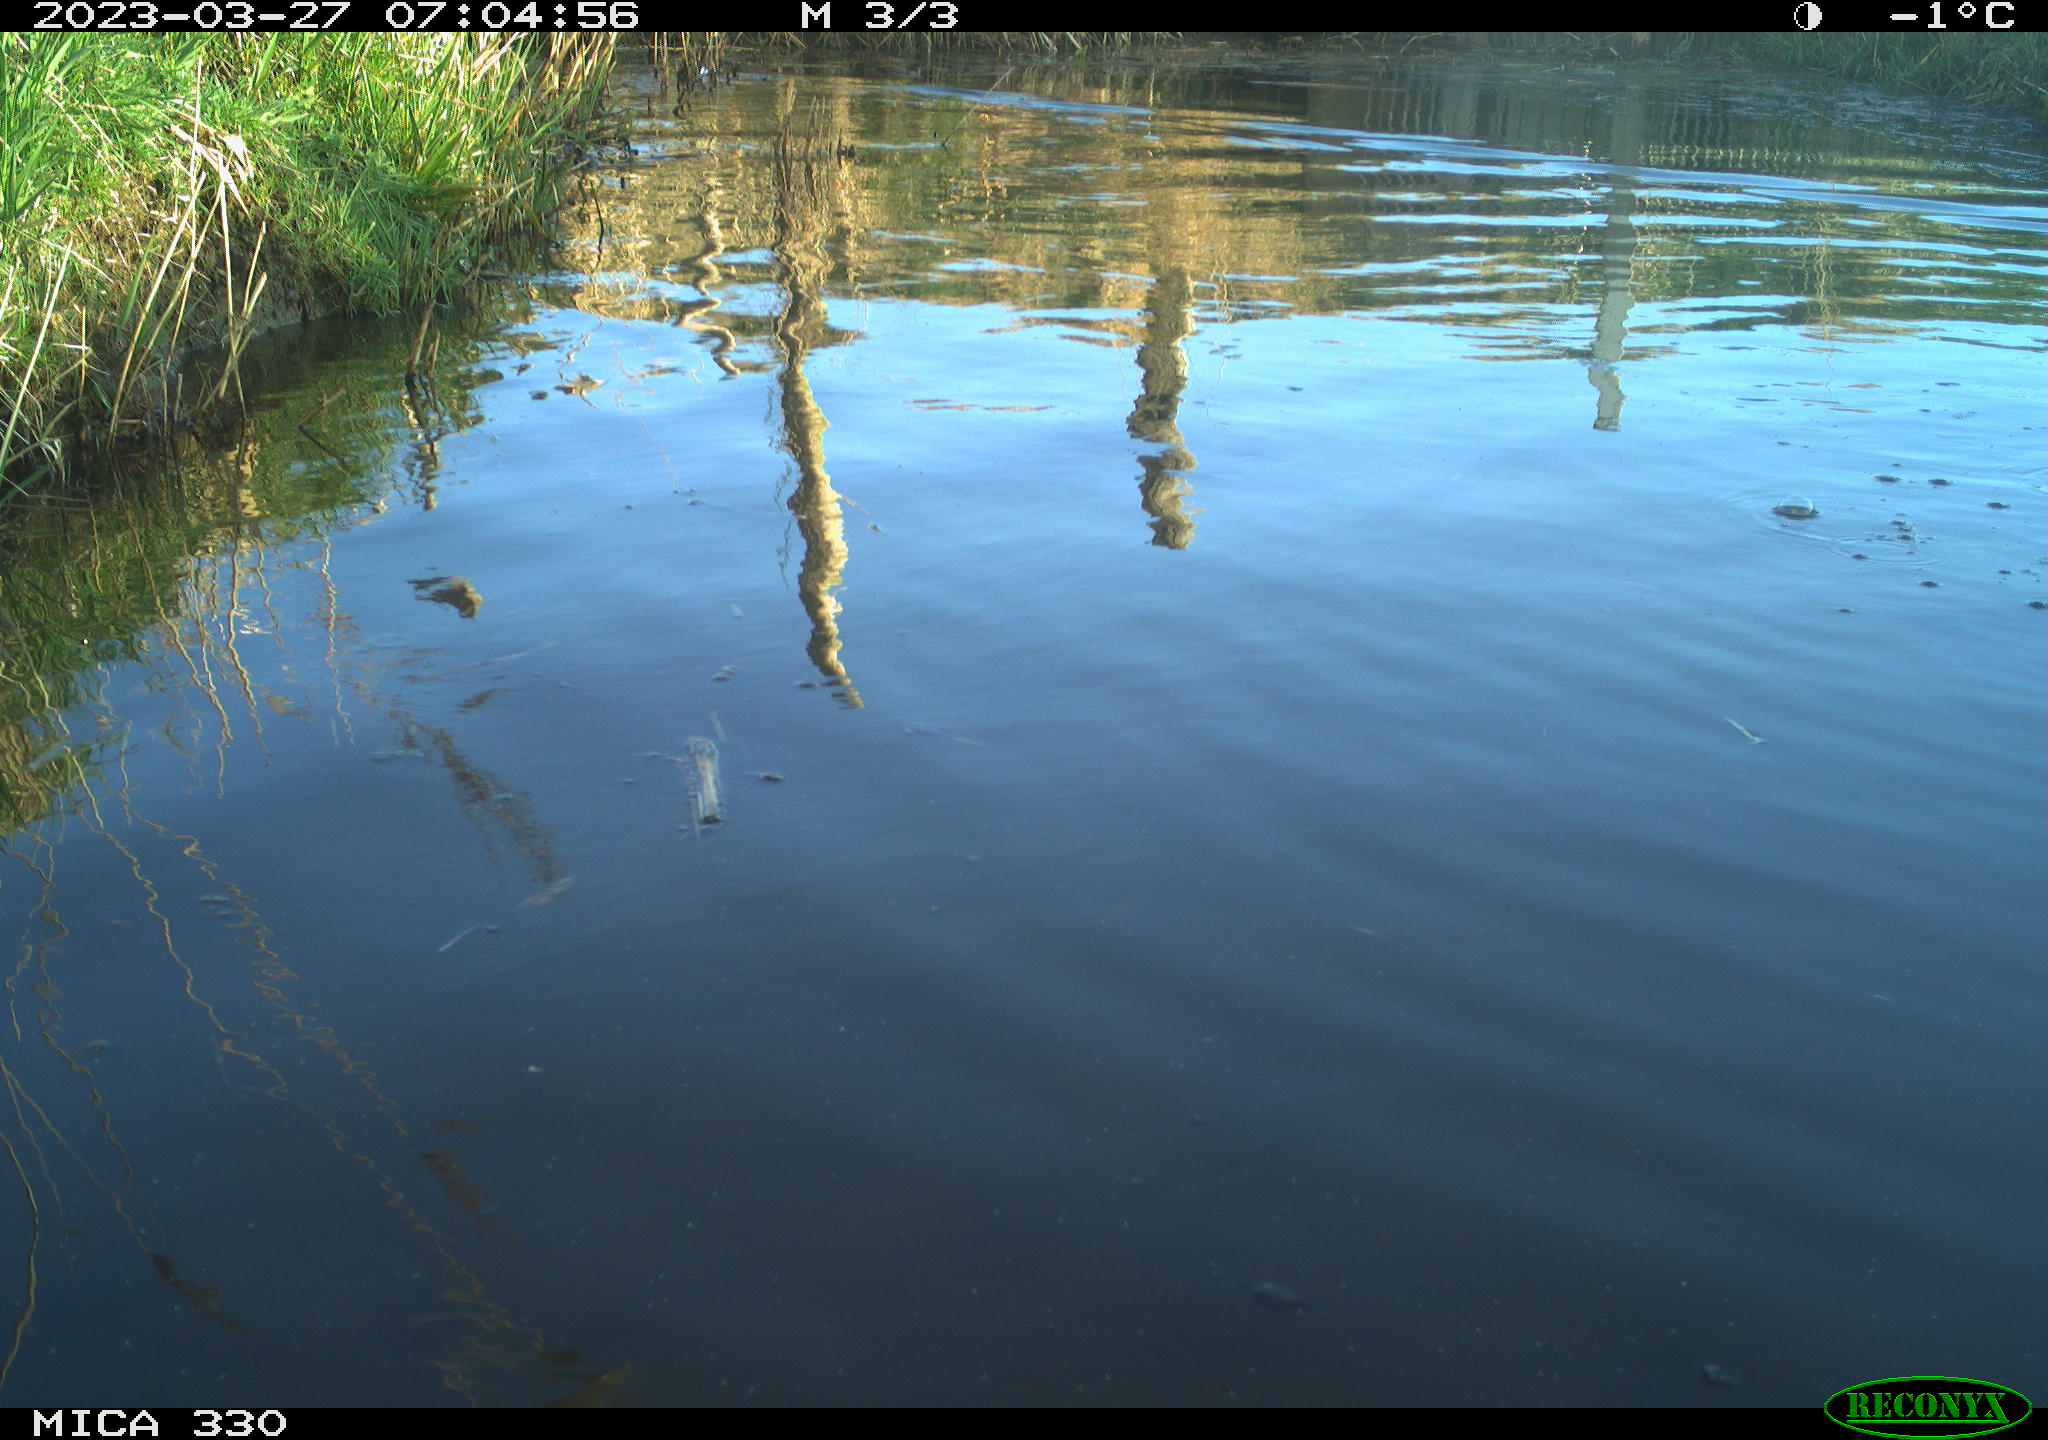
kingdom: Animalia
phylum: Chordata
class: Aves
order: Anseriformes
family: Anatidae
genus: Anas
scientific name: Anas
